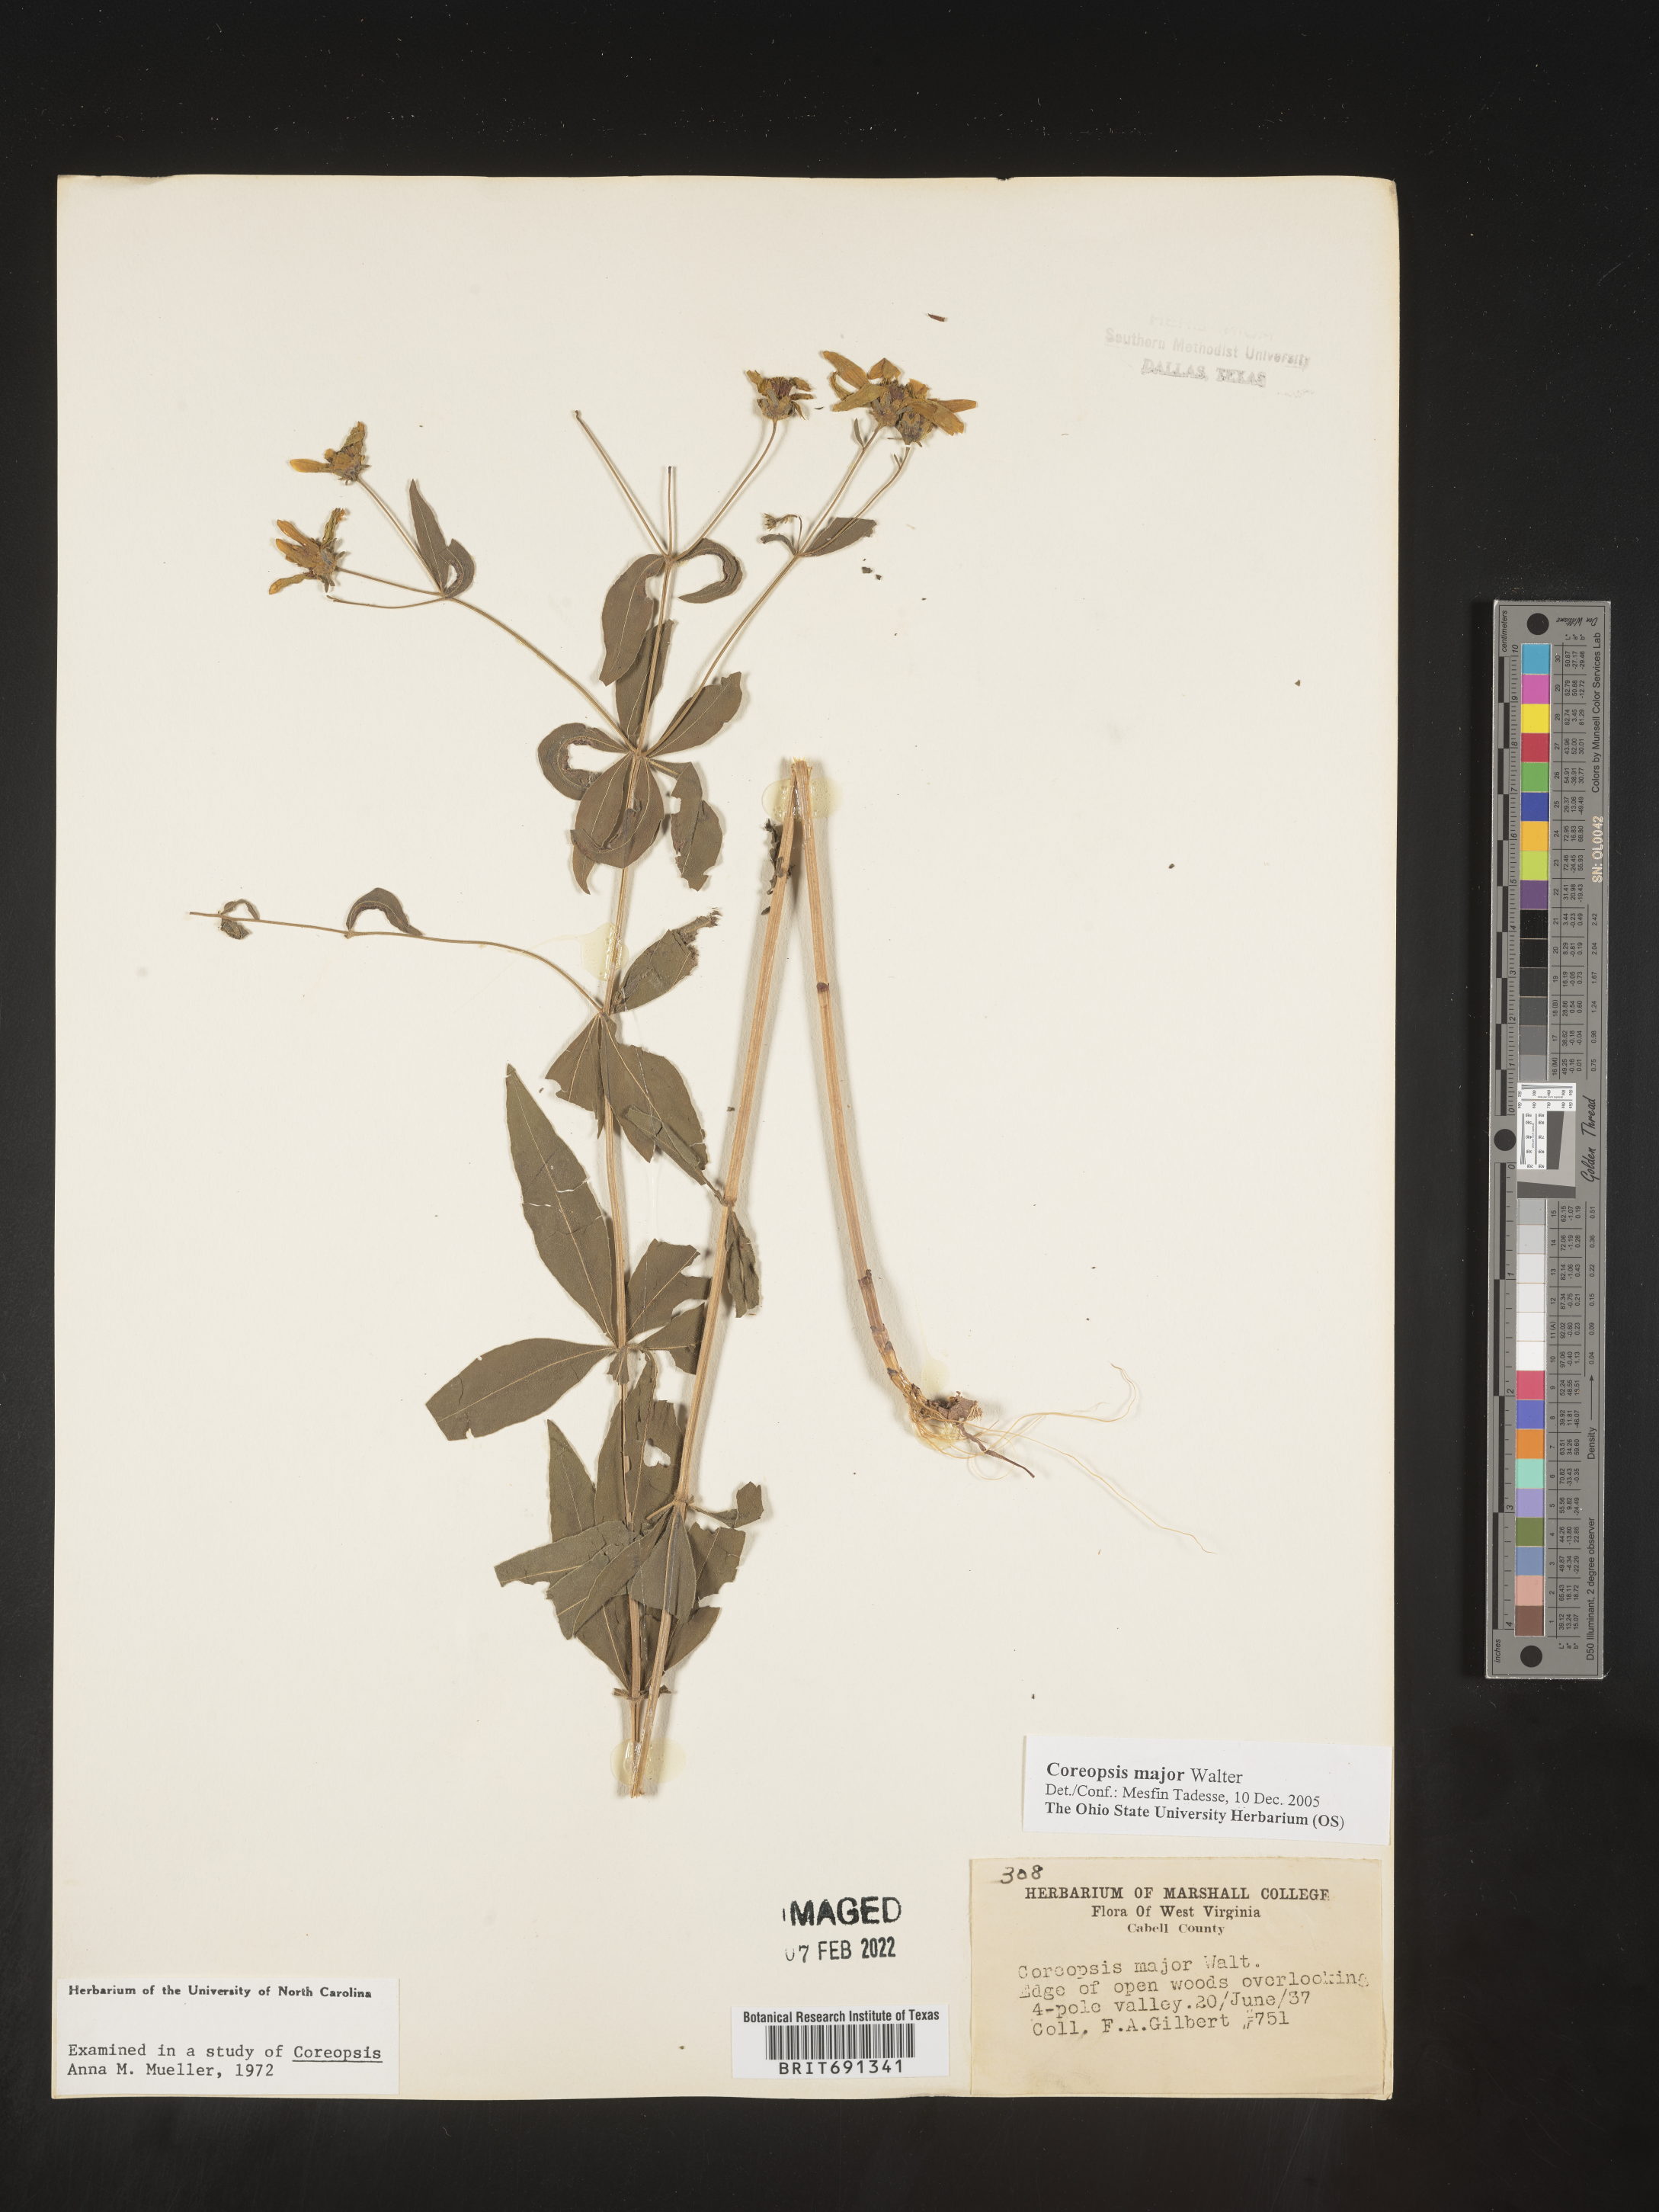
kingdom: Plantae
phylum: Tracheophyta
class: Magnoliopsida
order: Asterales
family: Asteraceae
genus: Coreopsis
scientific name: Coreopsis major
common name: Forest tickseed
